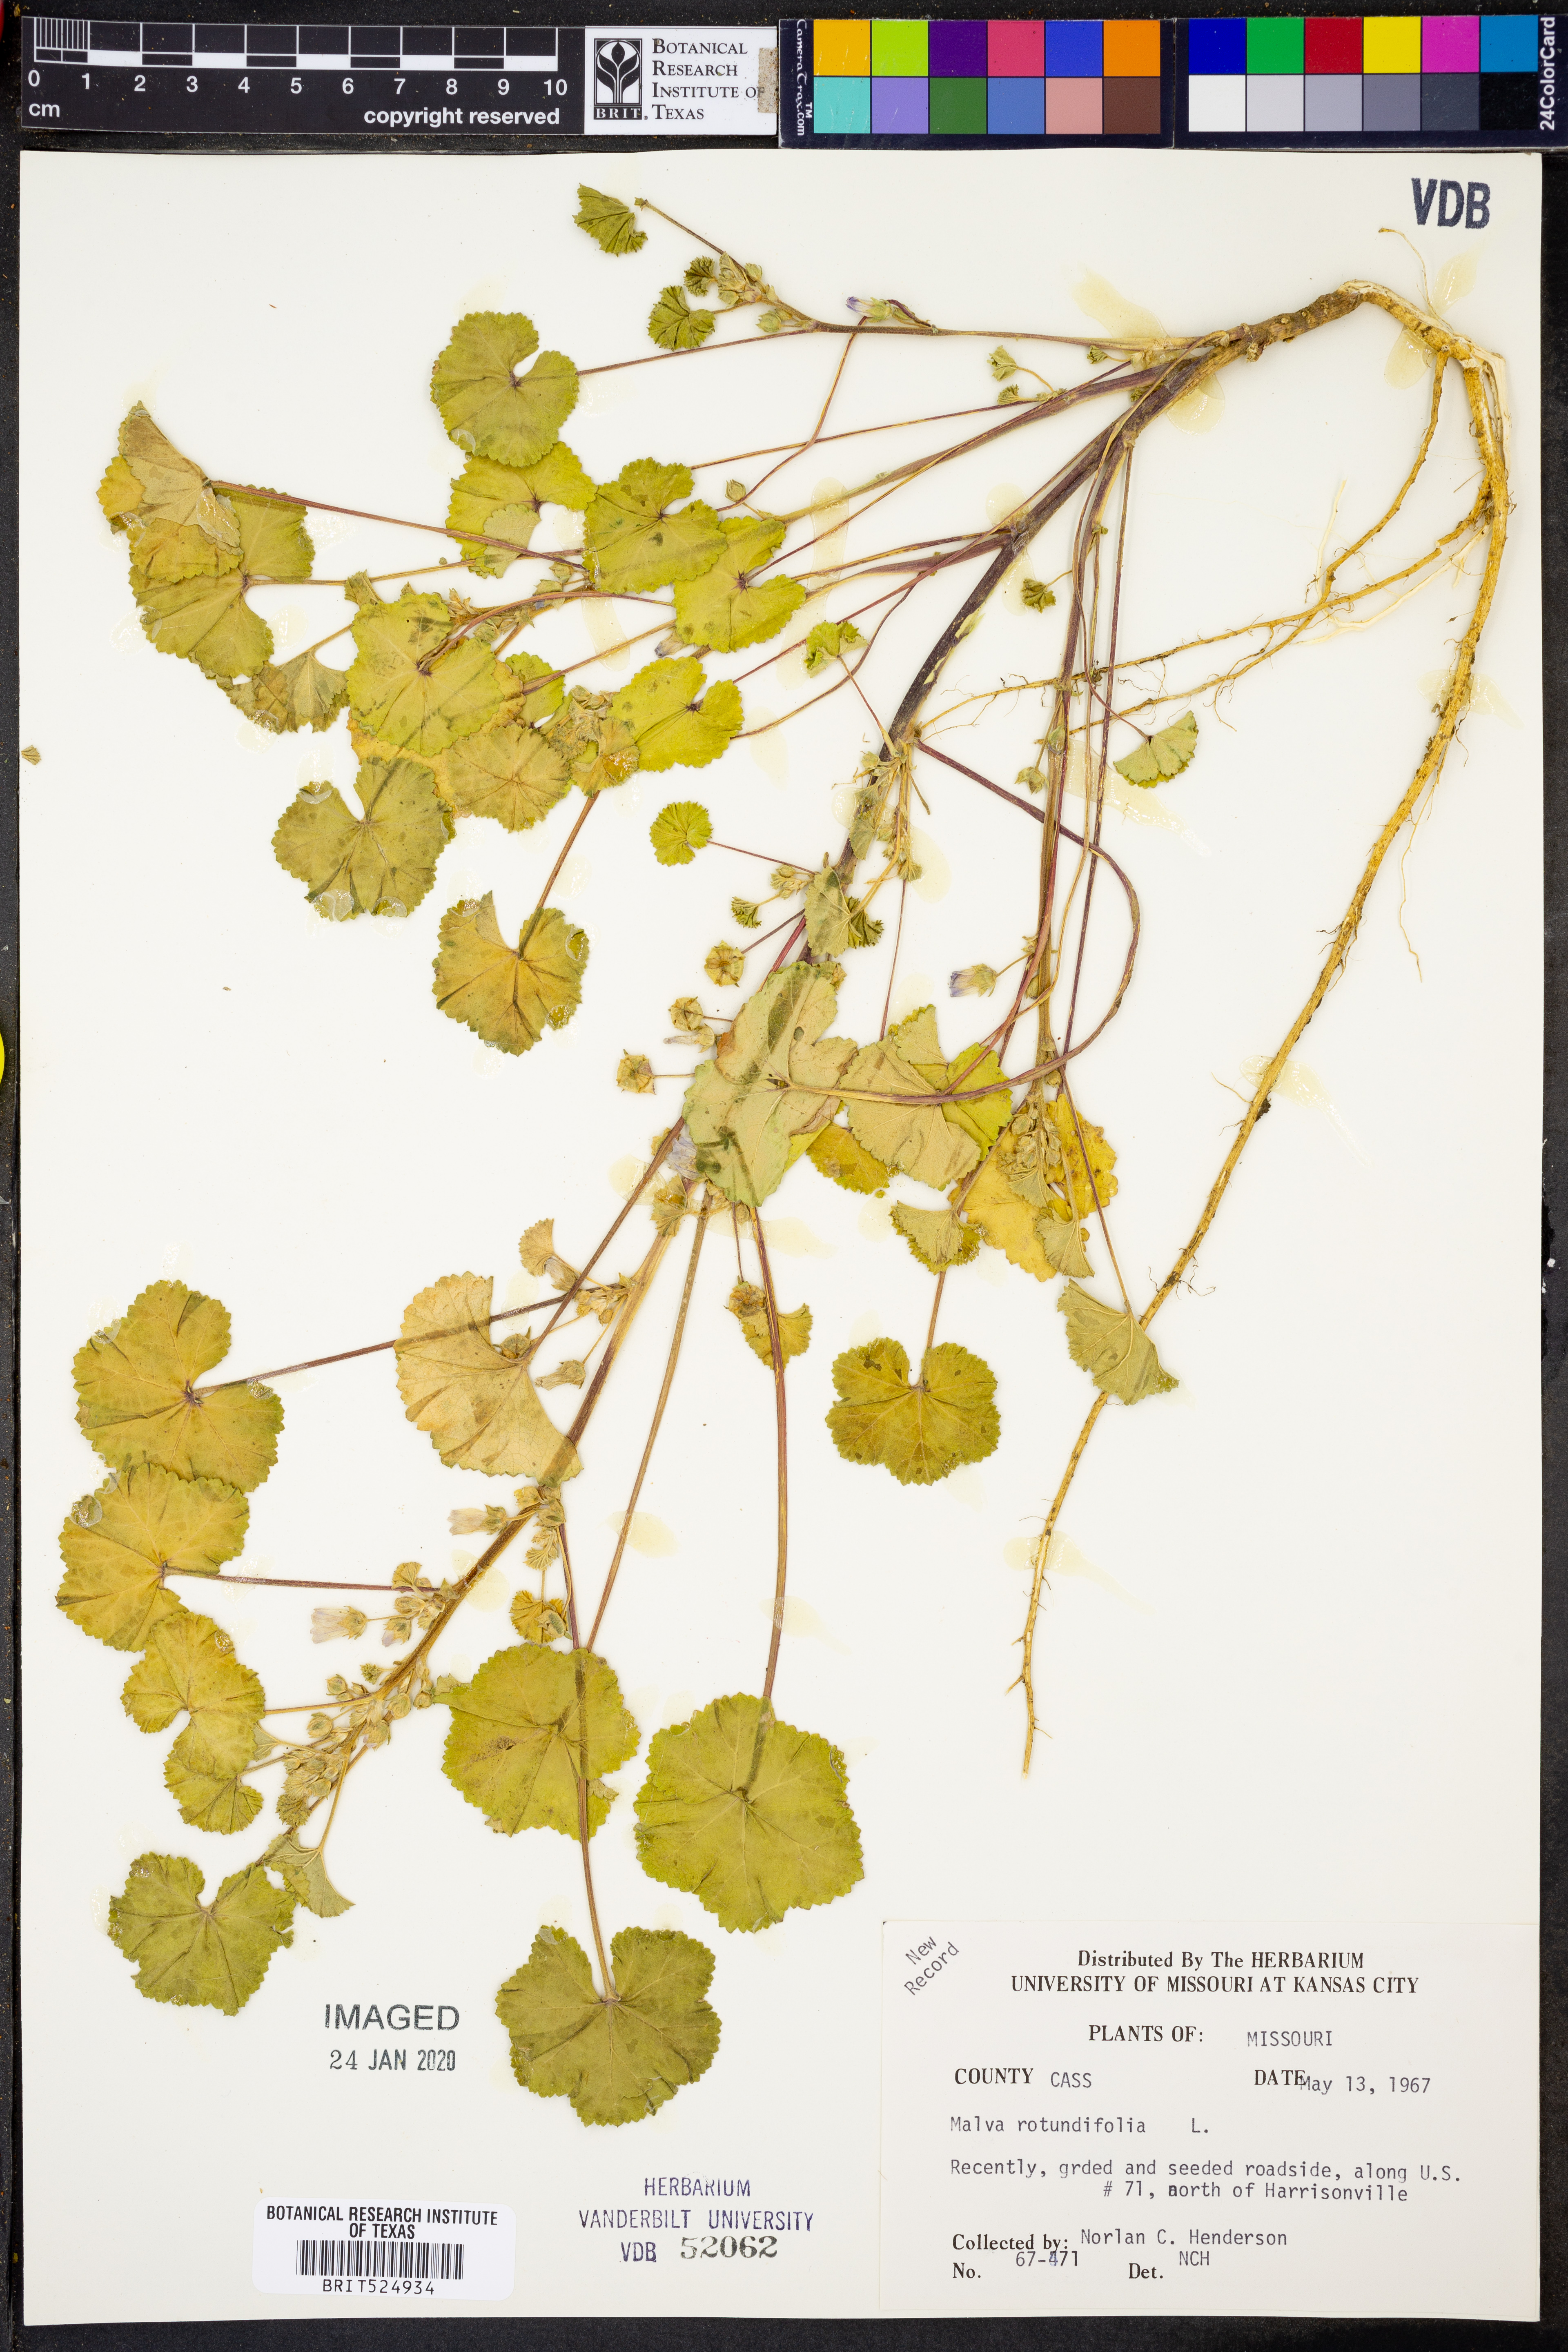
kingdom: Plantae
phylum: Tracheophyta
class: Magnoliopsida
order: Malvales
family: Malvaceae
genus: Malva
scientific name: Malva pusilla
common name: Small mallow
